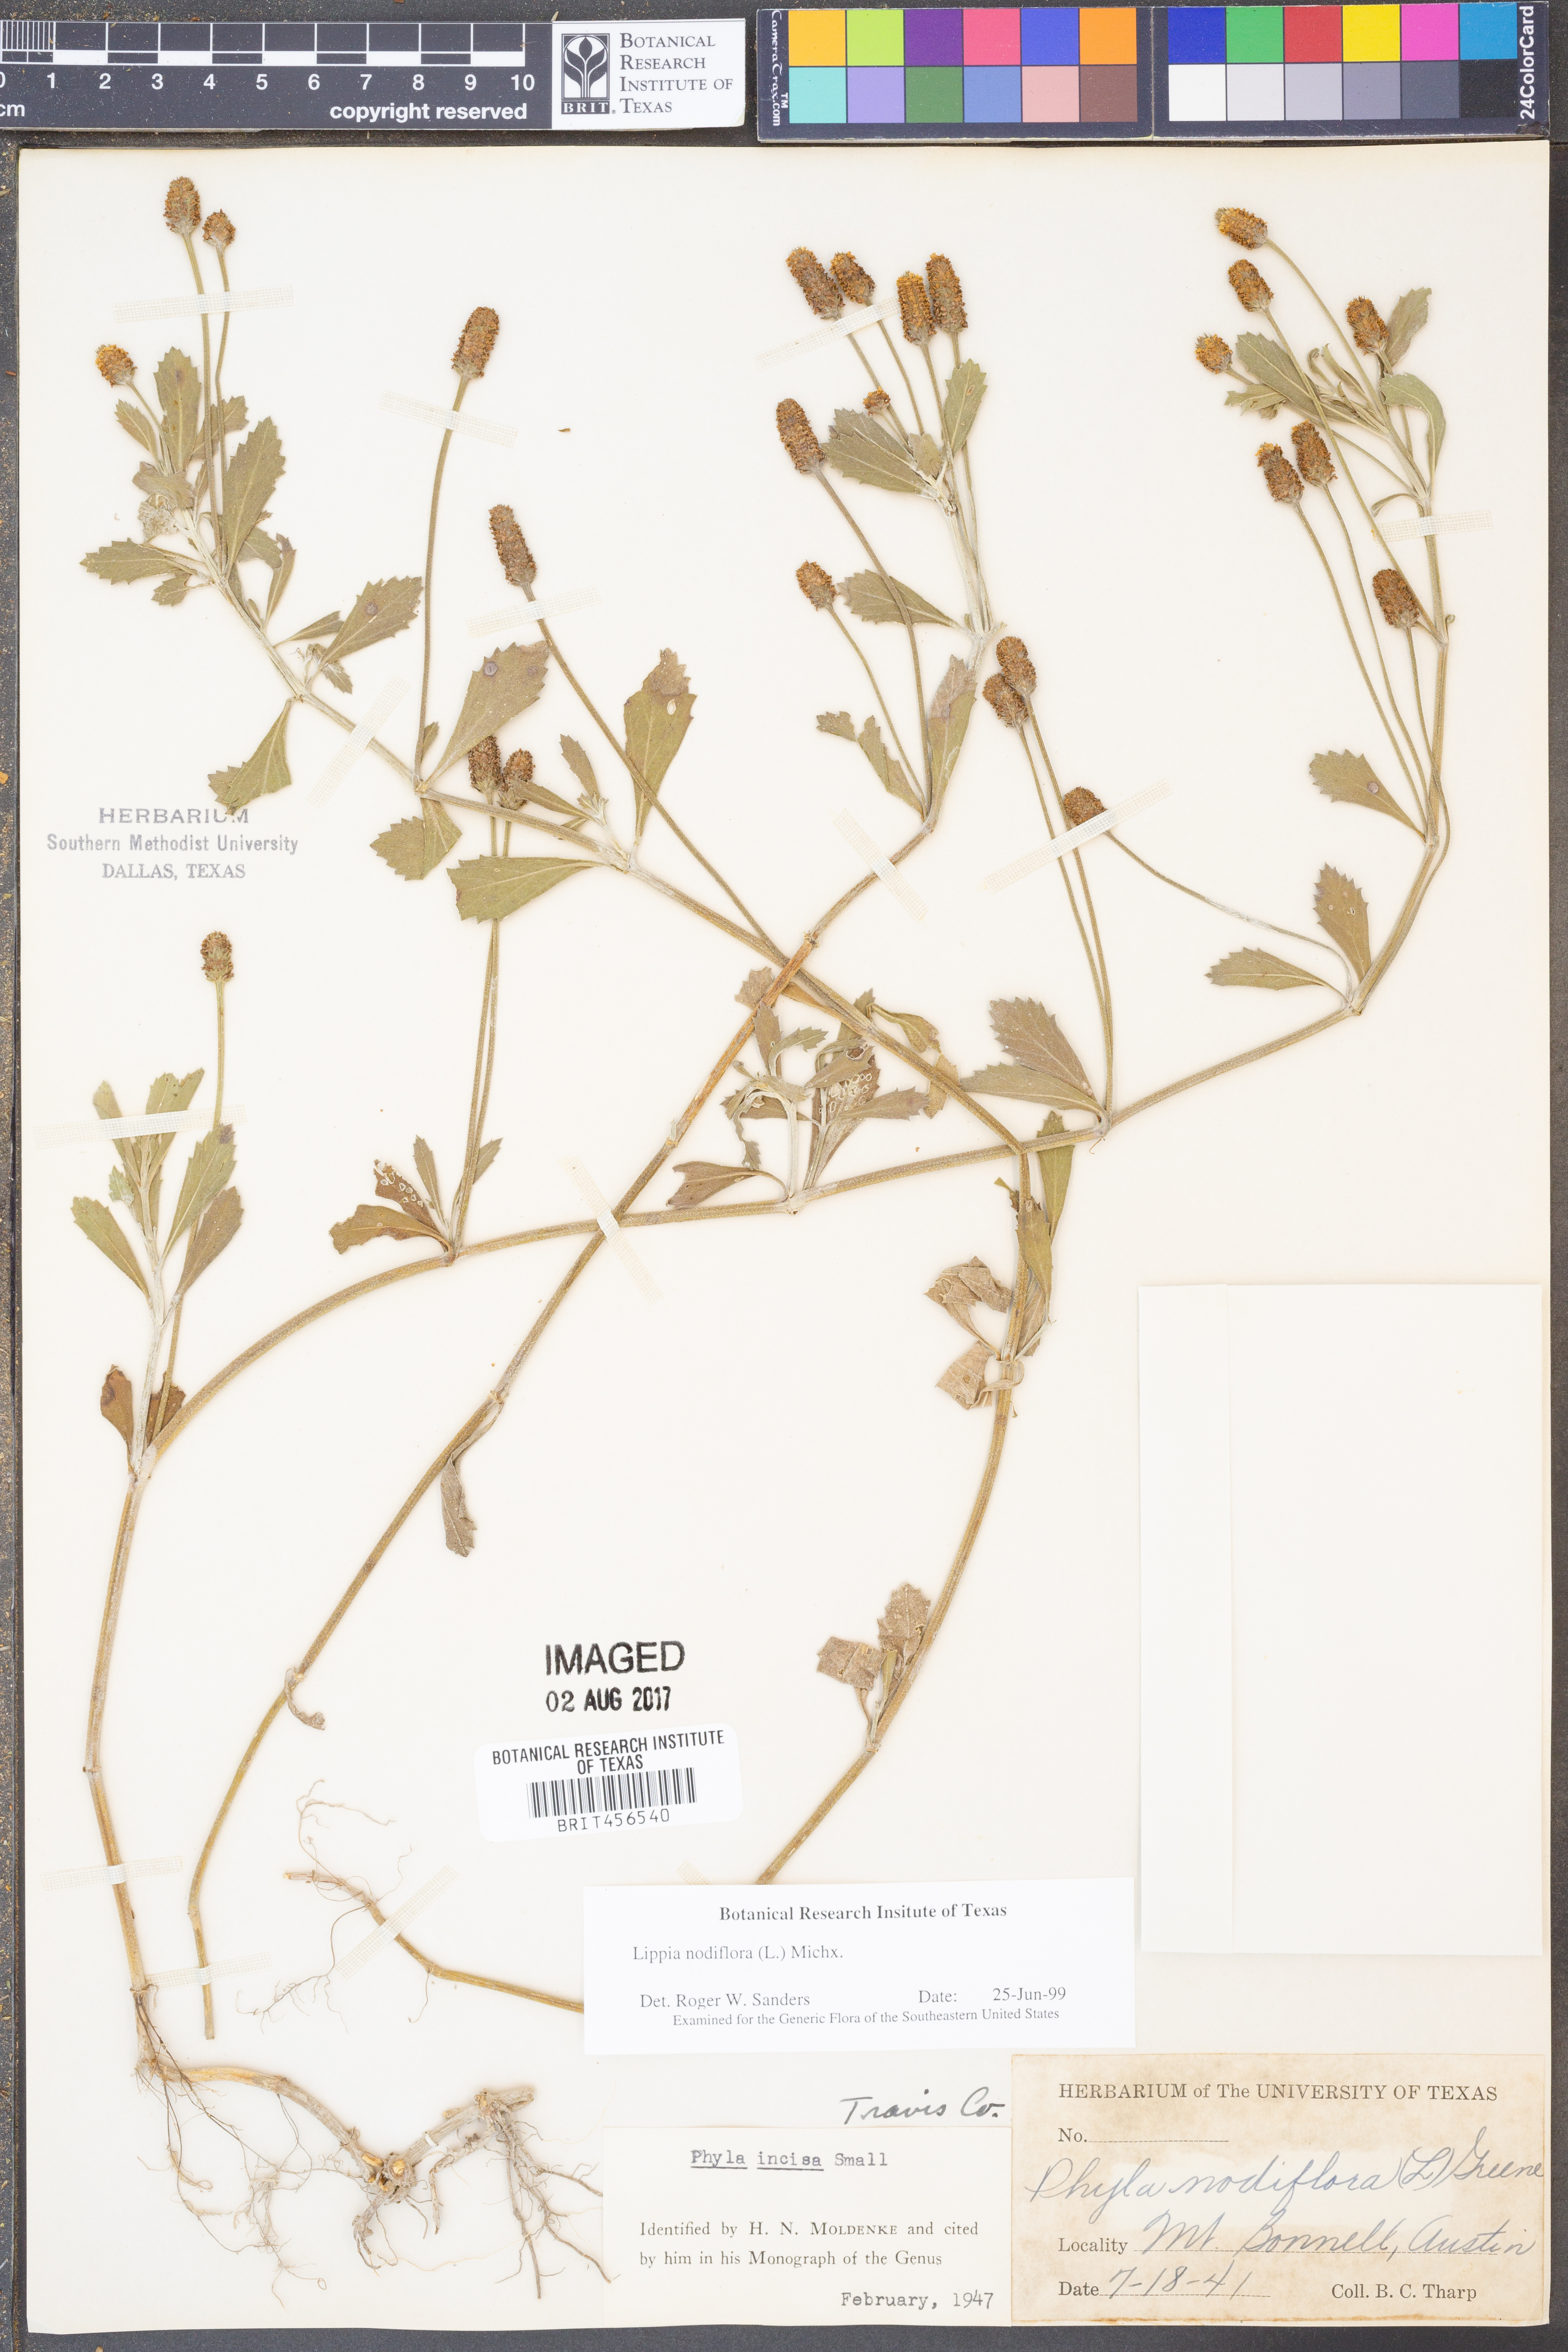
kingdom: Plantae
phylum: Tracheophyta
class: Magnoliopsida
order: Lamiales
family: Verbenaceae
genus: Phyla
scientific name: Phyla nodiflora
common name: Frogfruit
